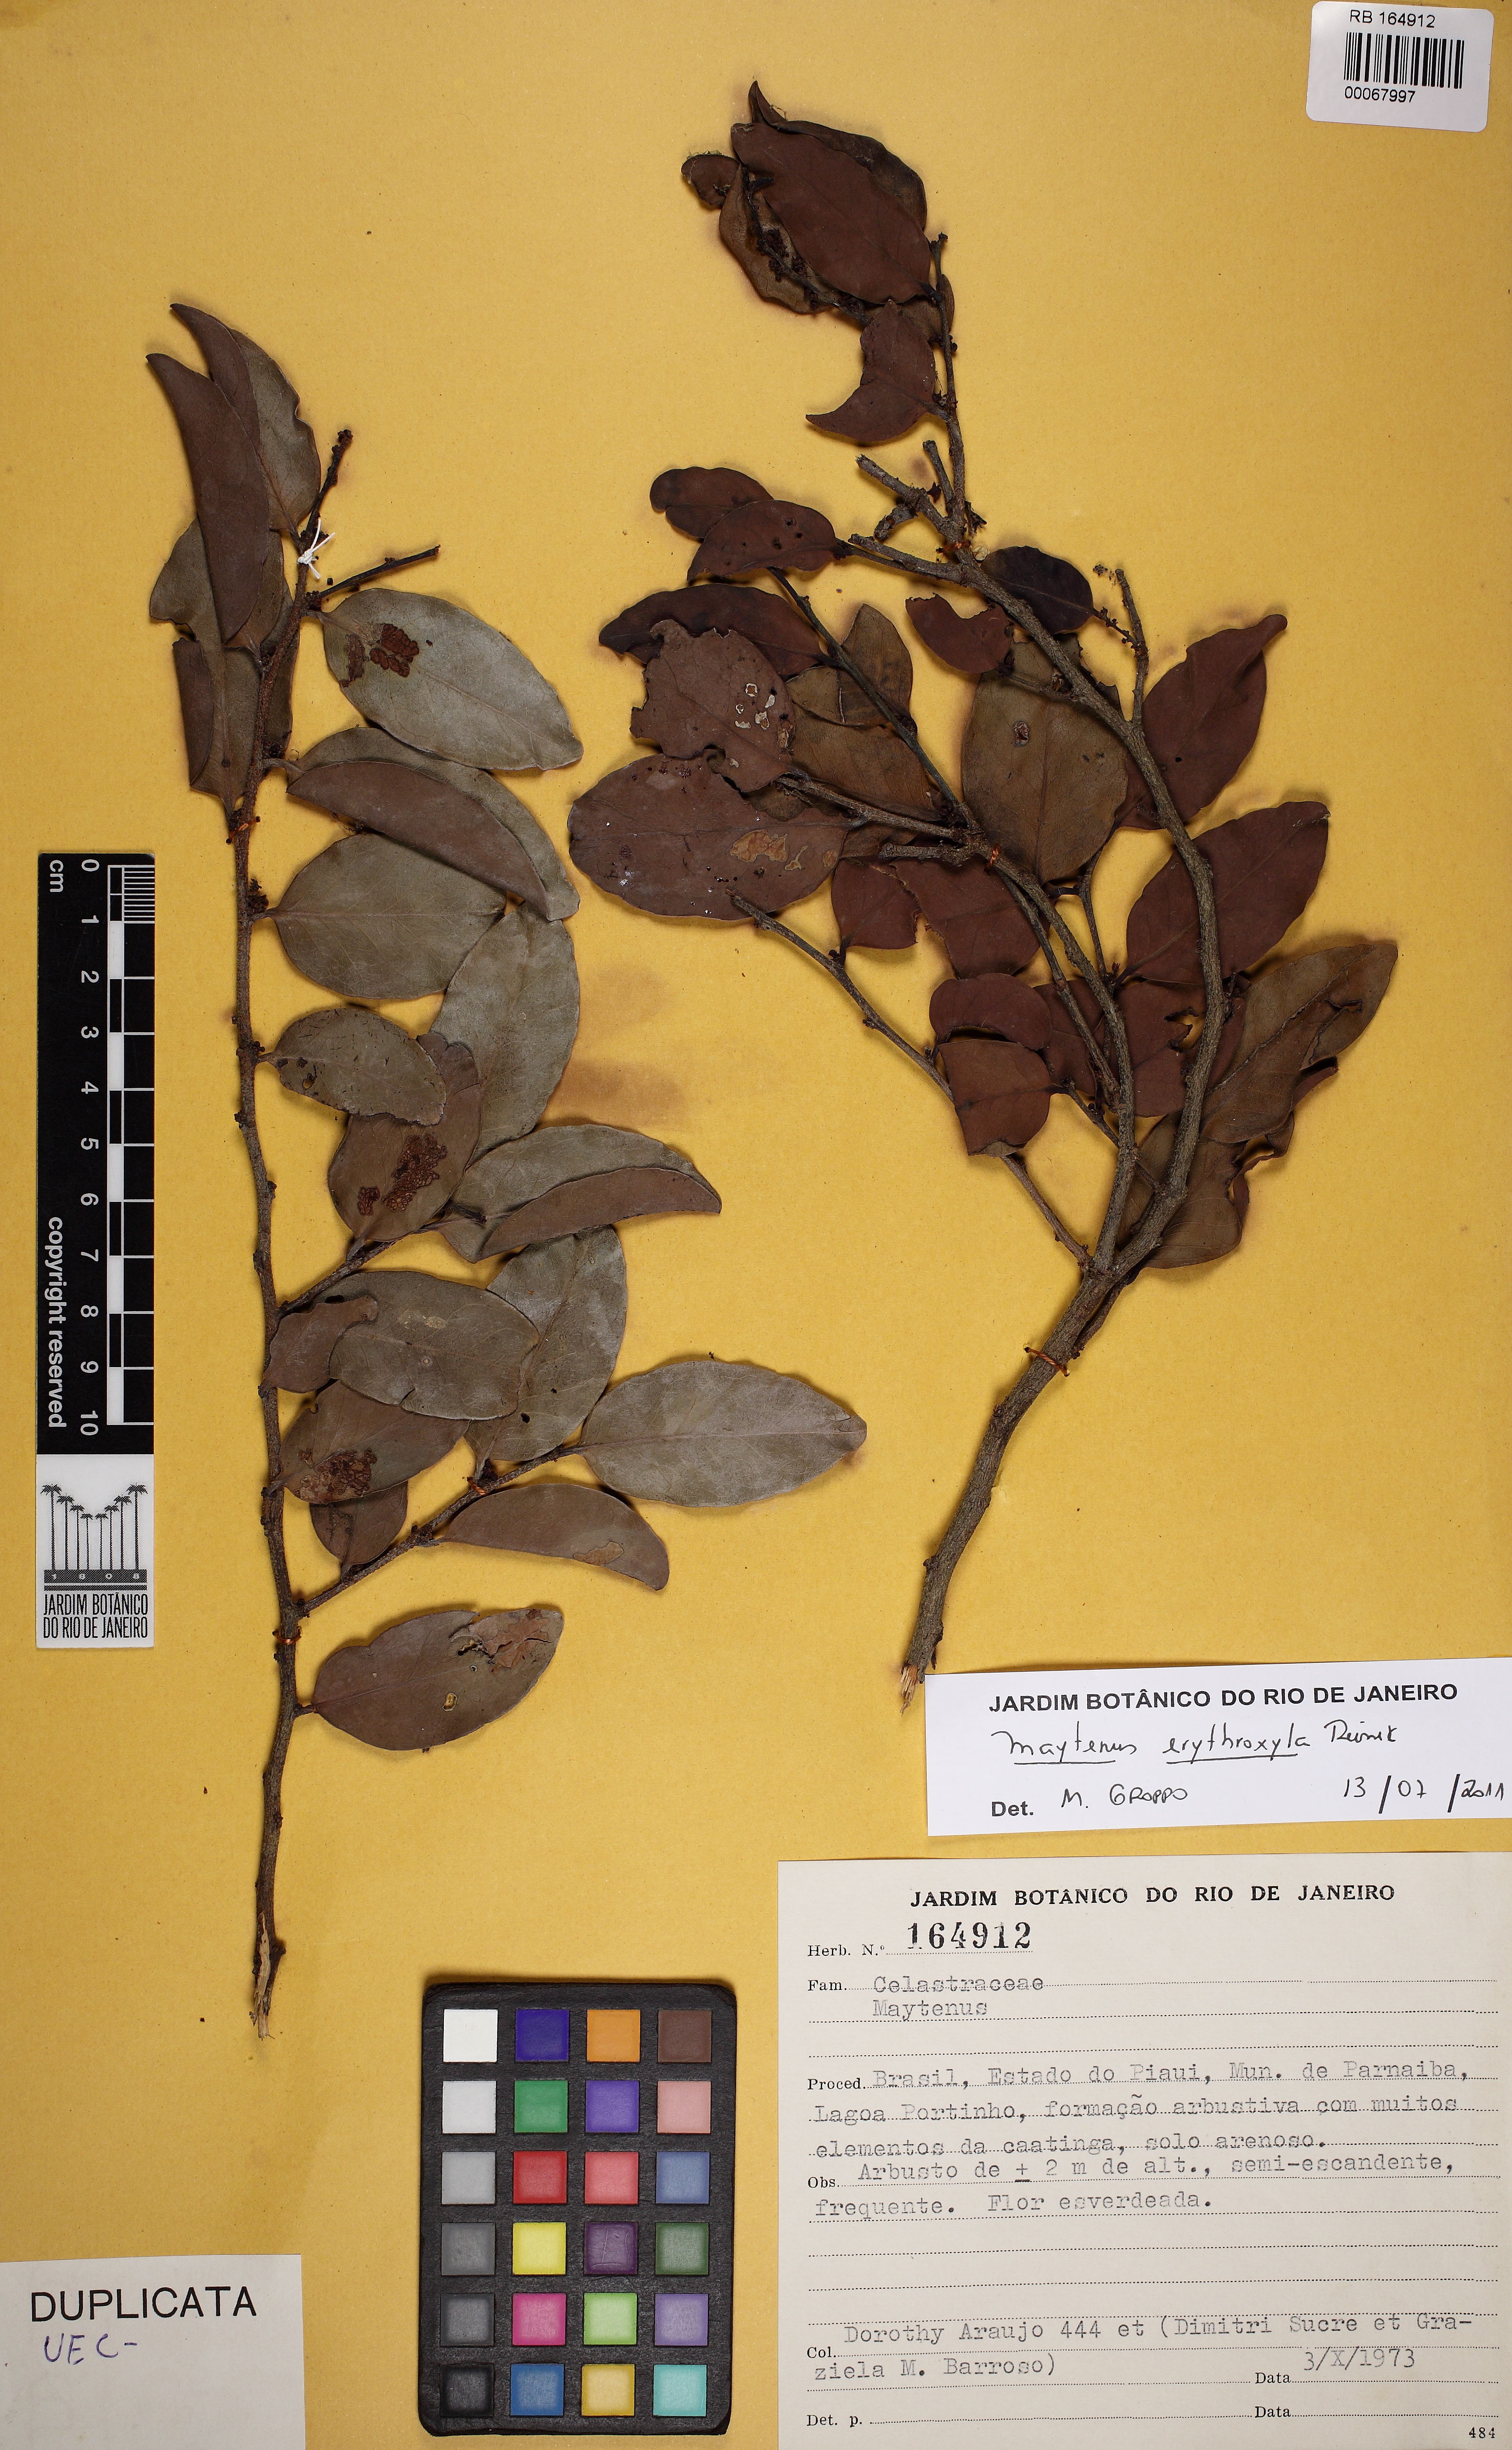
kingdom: Plantae
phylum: Tracheophyta
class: Magnoliopsida
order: Celastrales
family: Celastraceae
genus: Monteverdia
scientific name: Monteverdia erythroxylon
